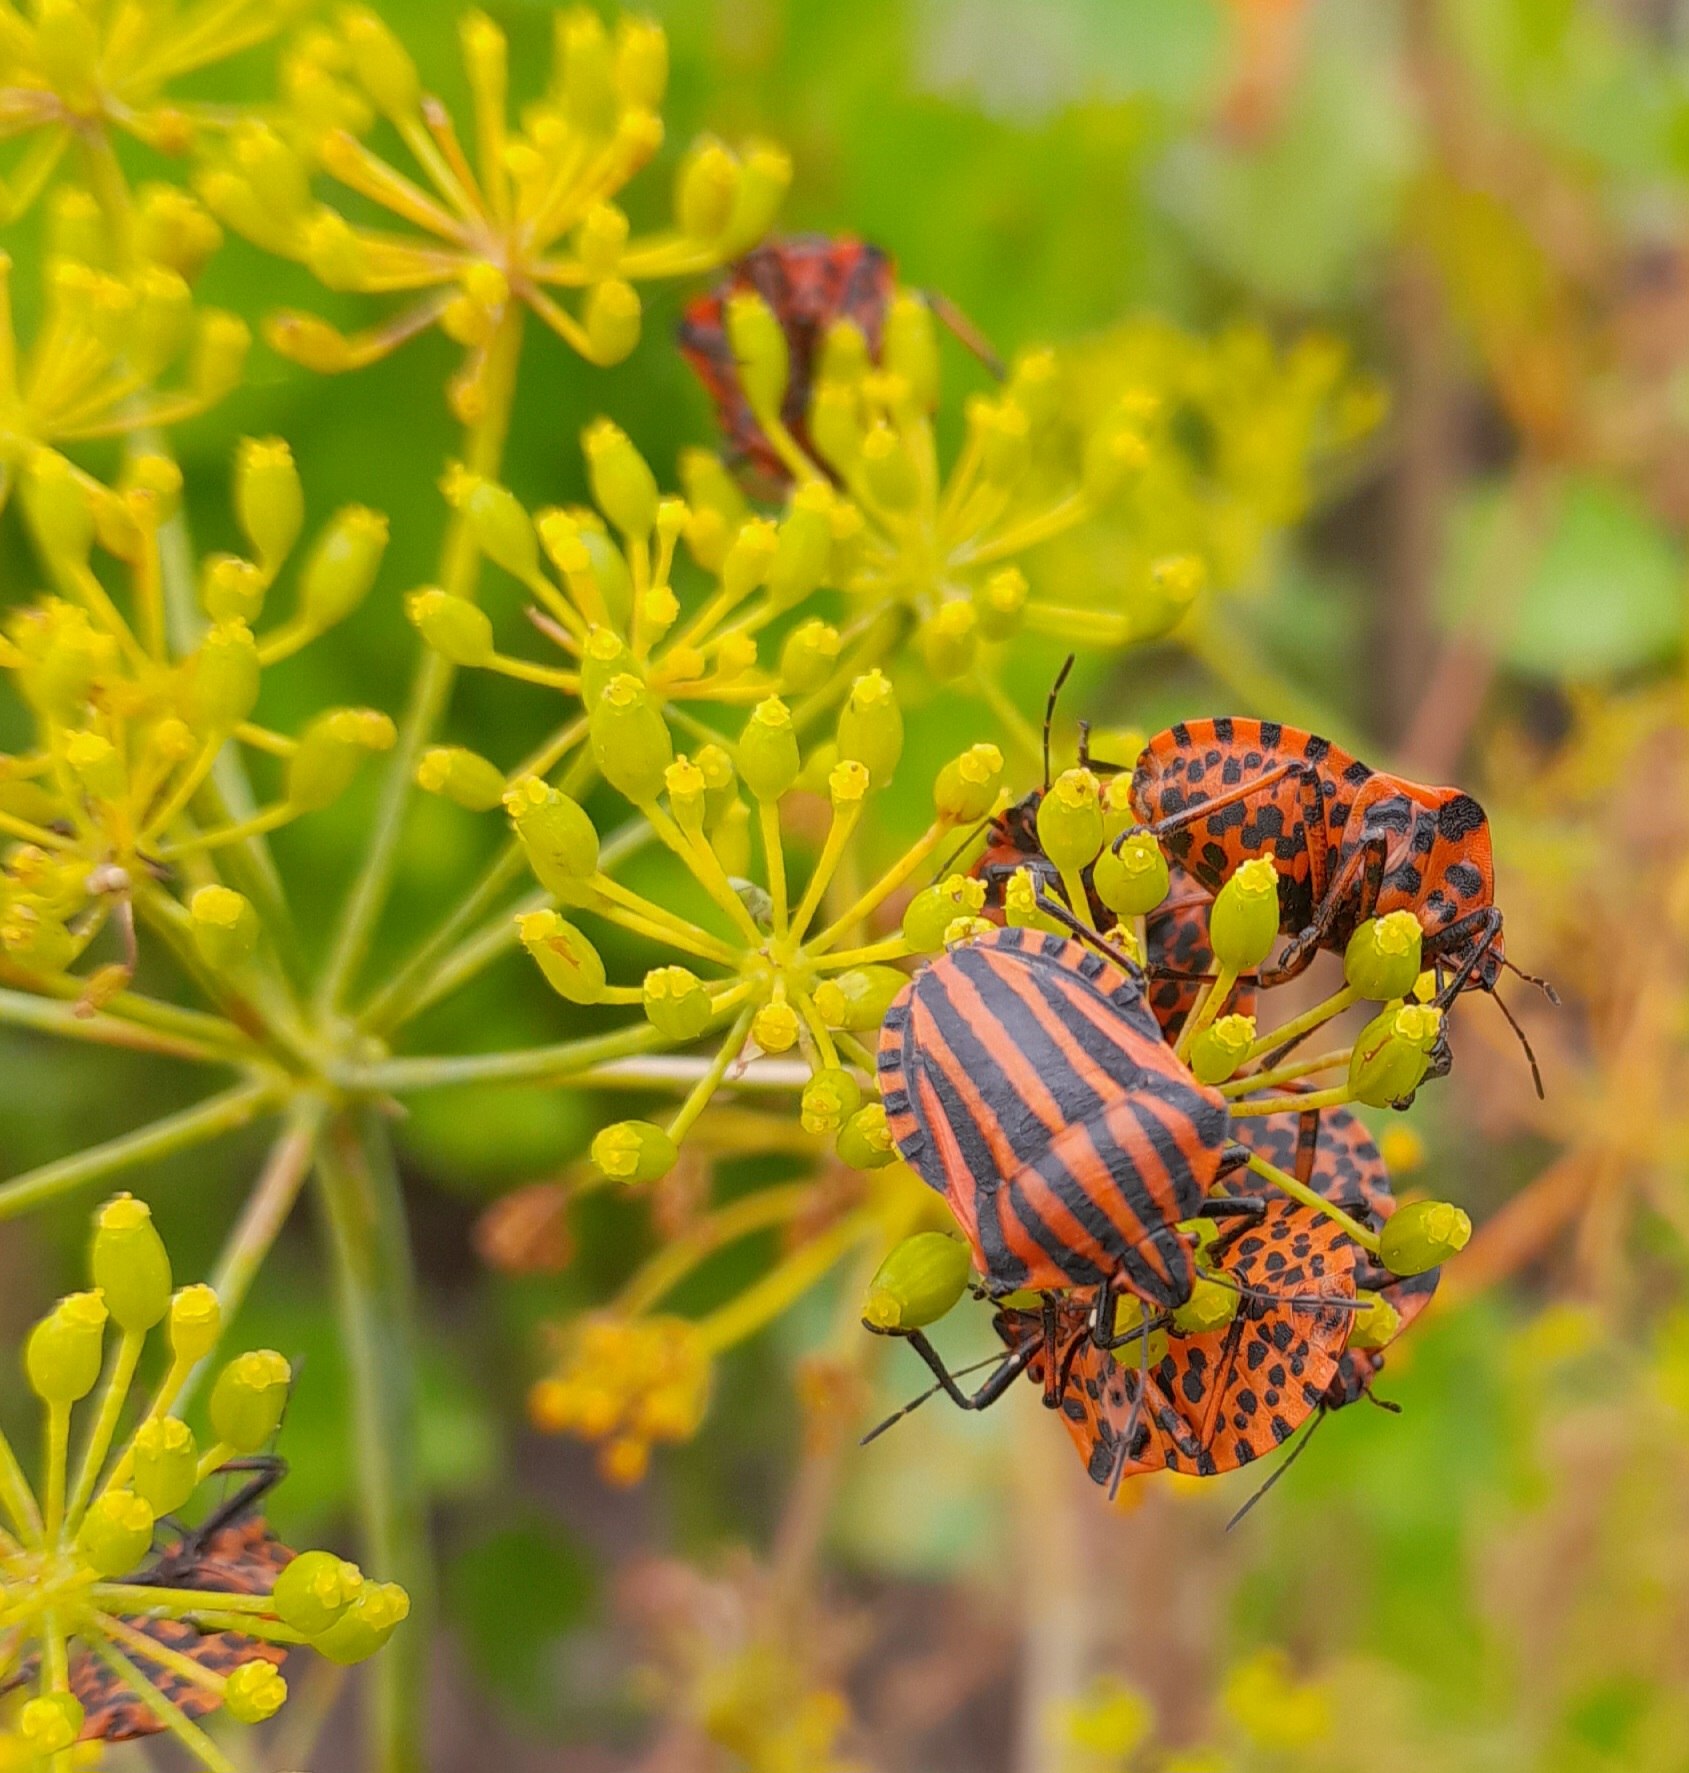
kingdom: Animalia
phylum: Arthropoda
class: Insecta
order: Hemiptera
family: Pentatomidae
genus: Graphosoma
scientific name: Graphosoma italicum
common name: Stribetæge
